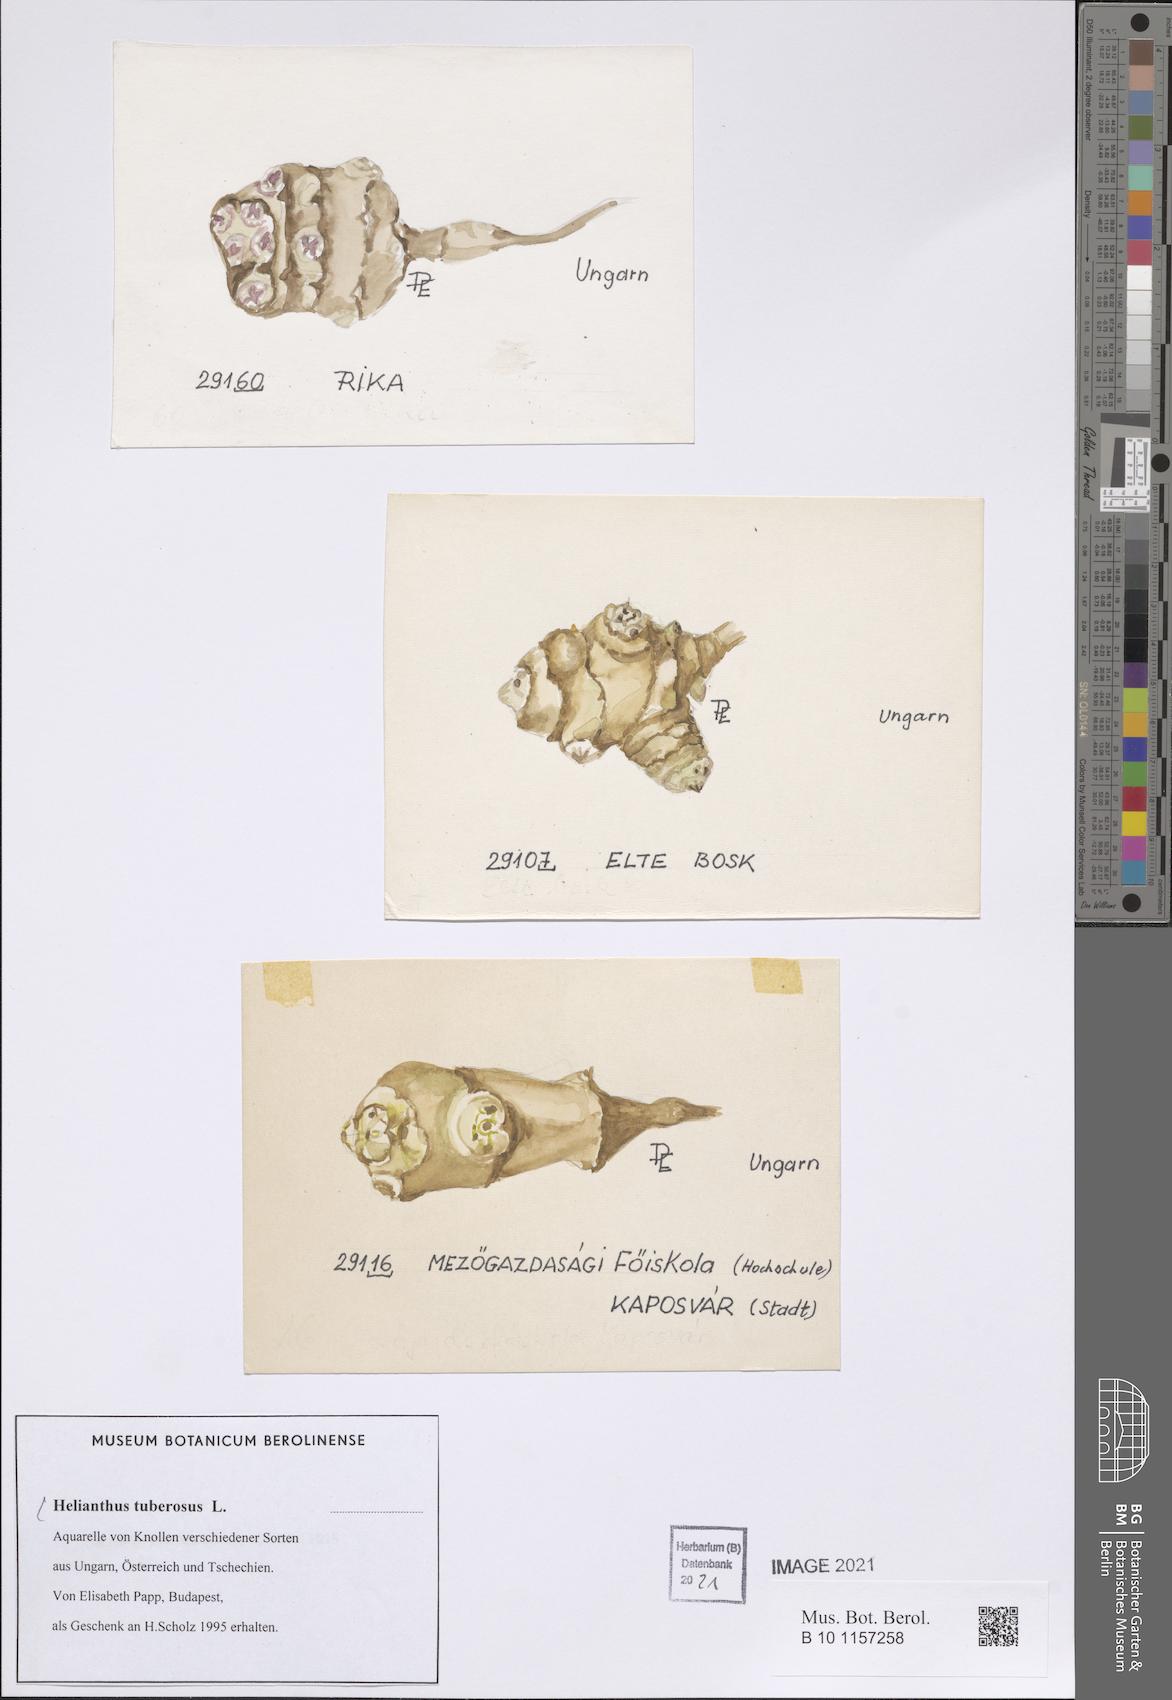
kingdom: Plantae
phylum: Tracheophyta
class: Magnoliopsida
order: Asterales
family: Asteraceae
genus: Helianthus
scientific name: Helianthus tuberosus
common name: Jerusalem artichoke
